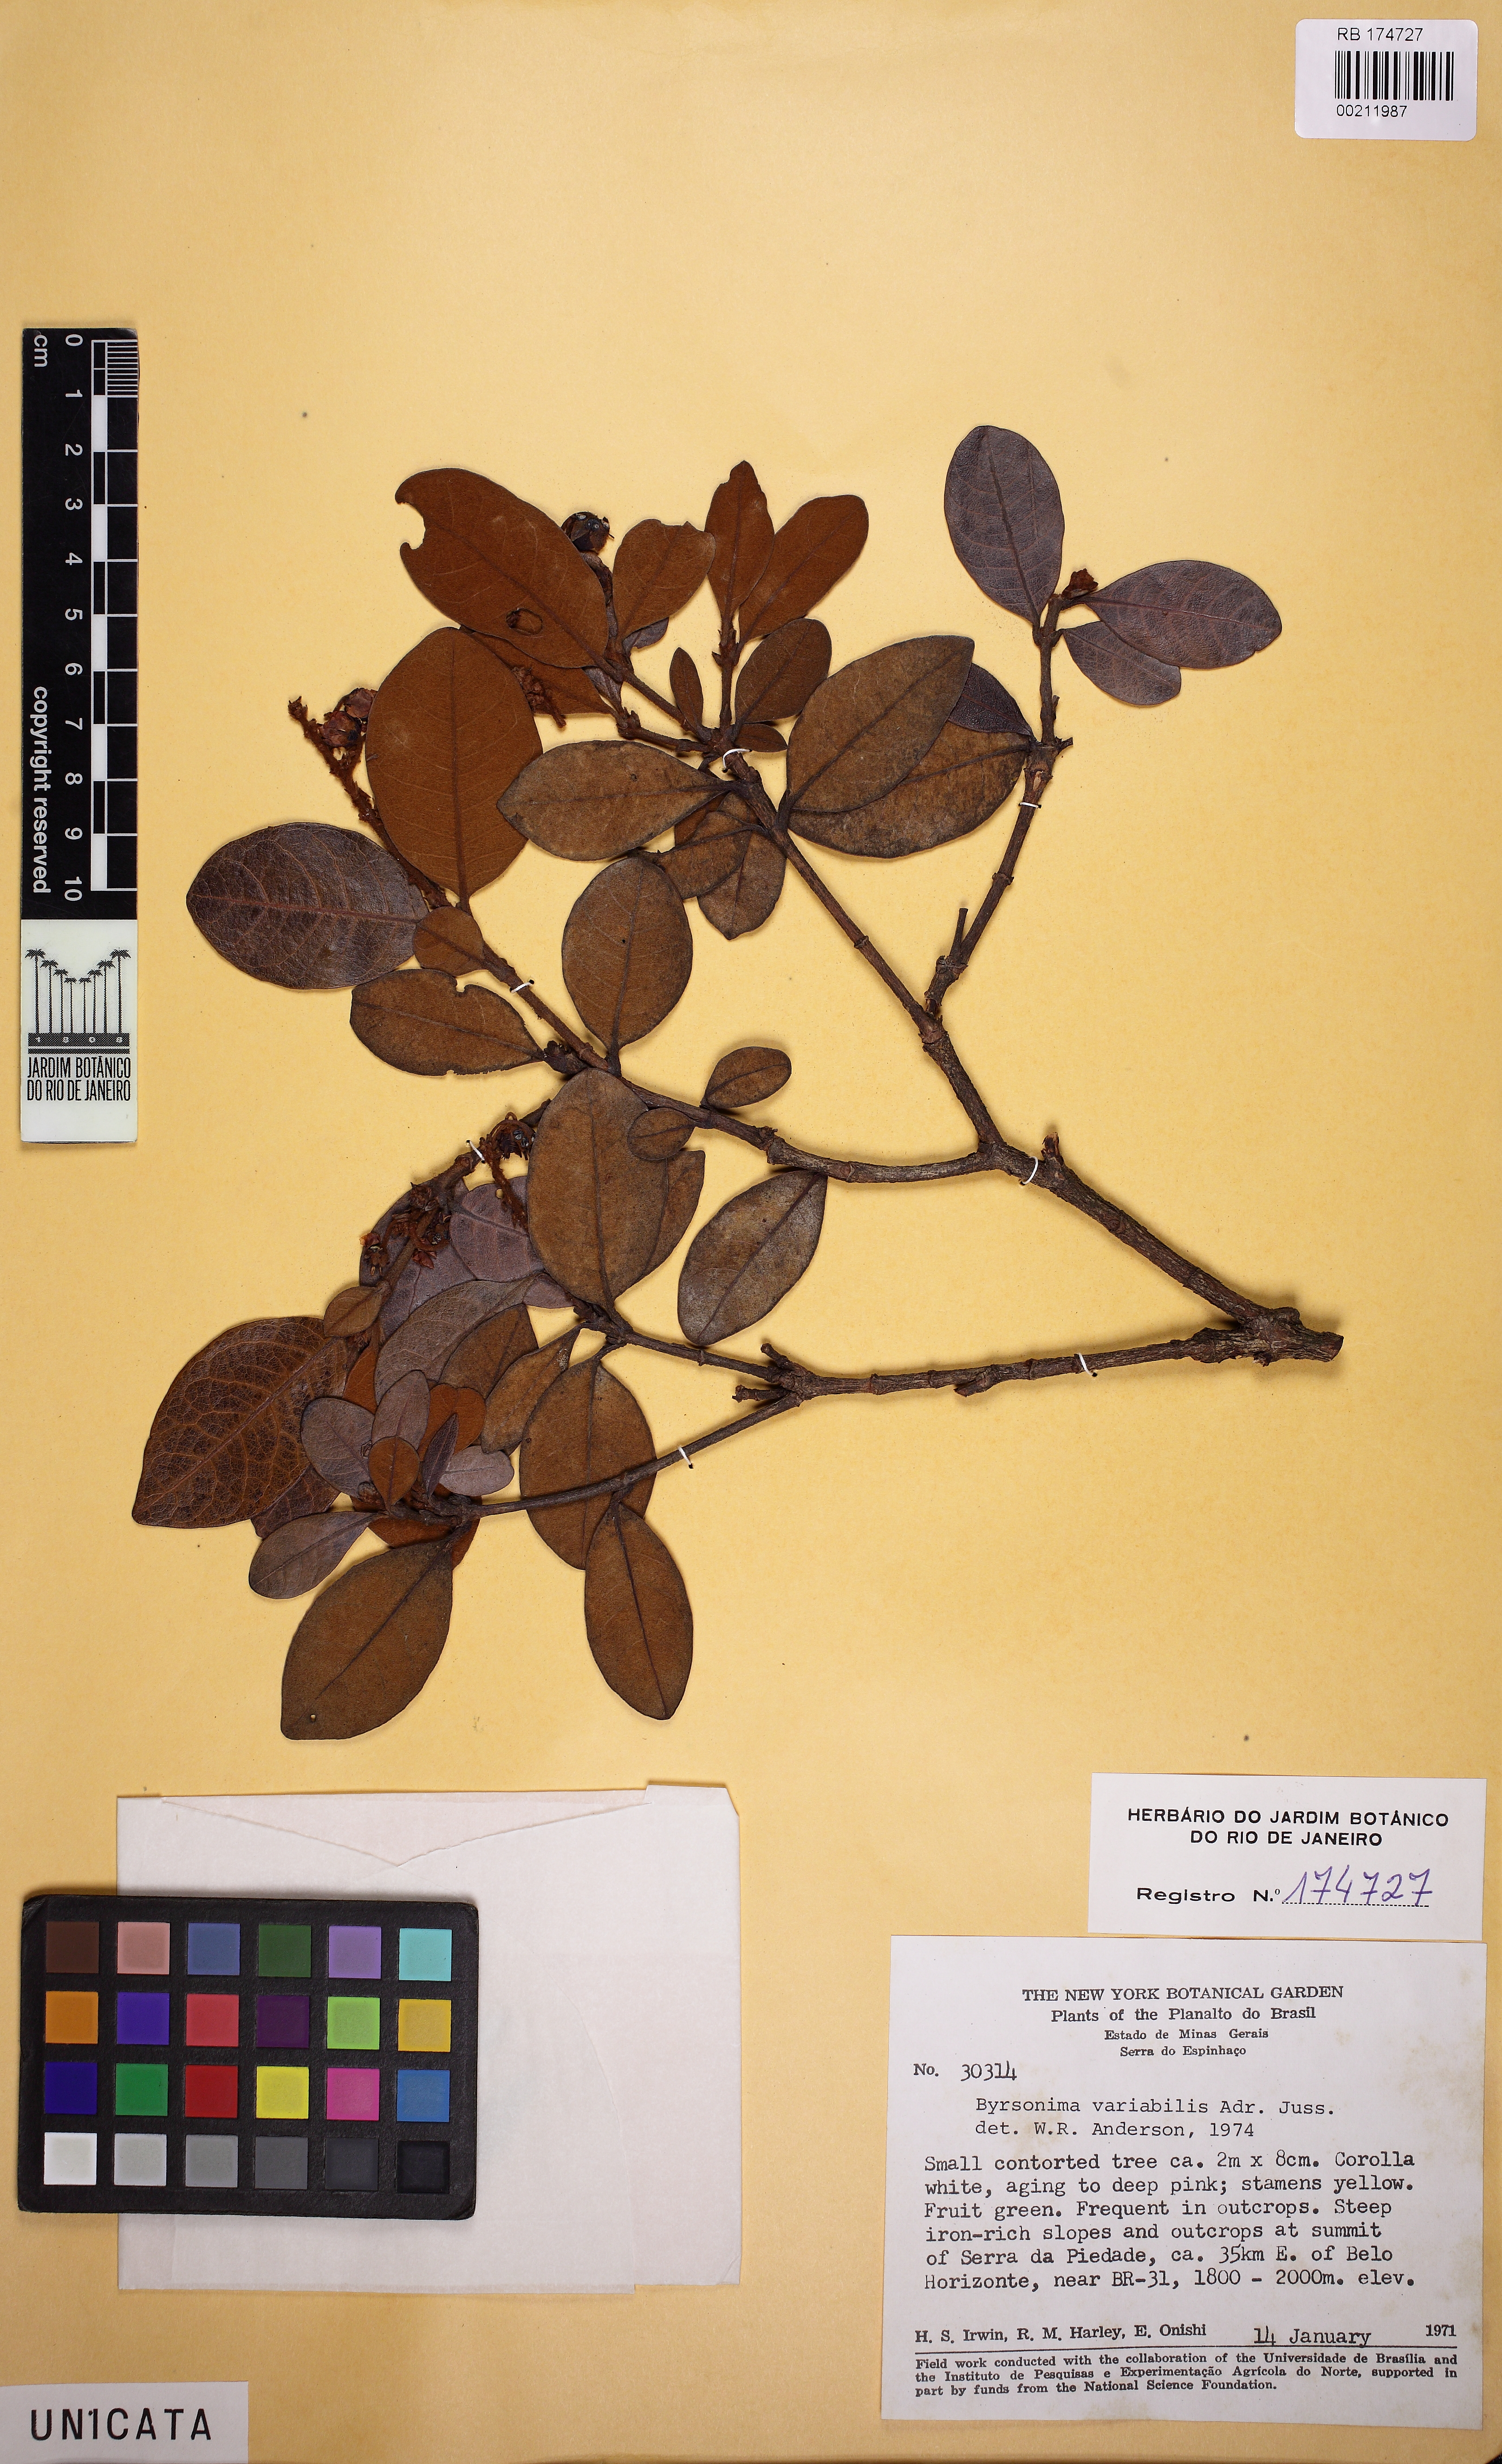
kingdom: Plantae
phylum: Tracheophyta
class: Magnoliopsida
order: Malpighiales
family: Malpighiaceae
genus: Byrsonima
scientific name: Byrsonima variabilis
